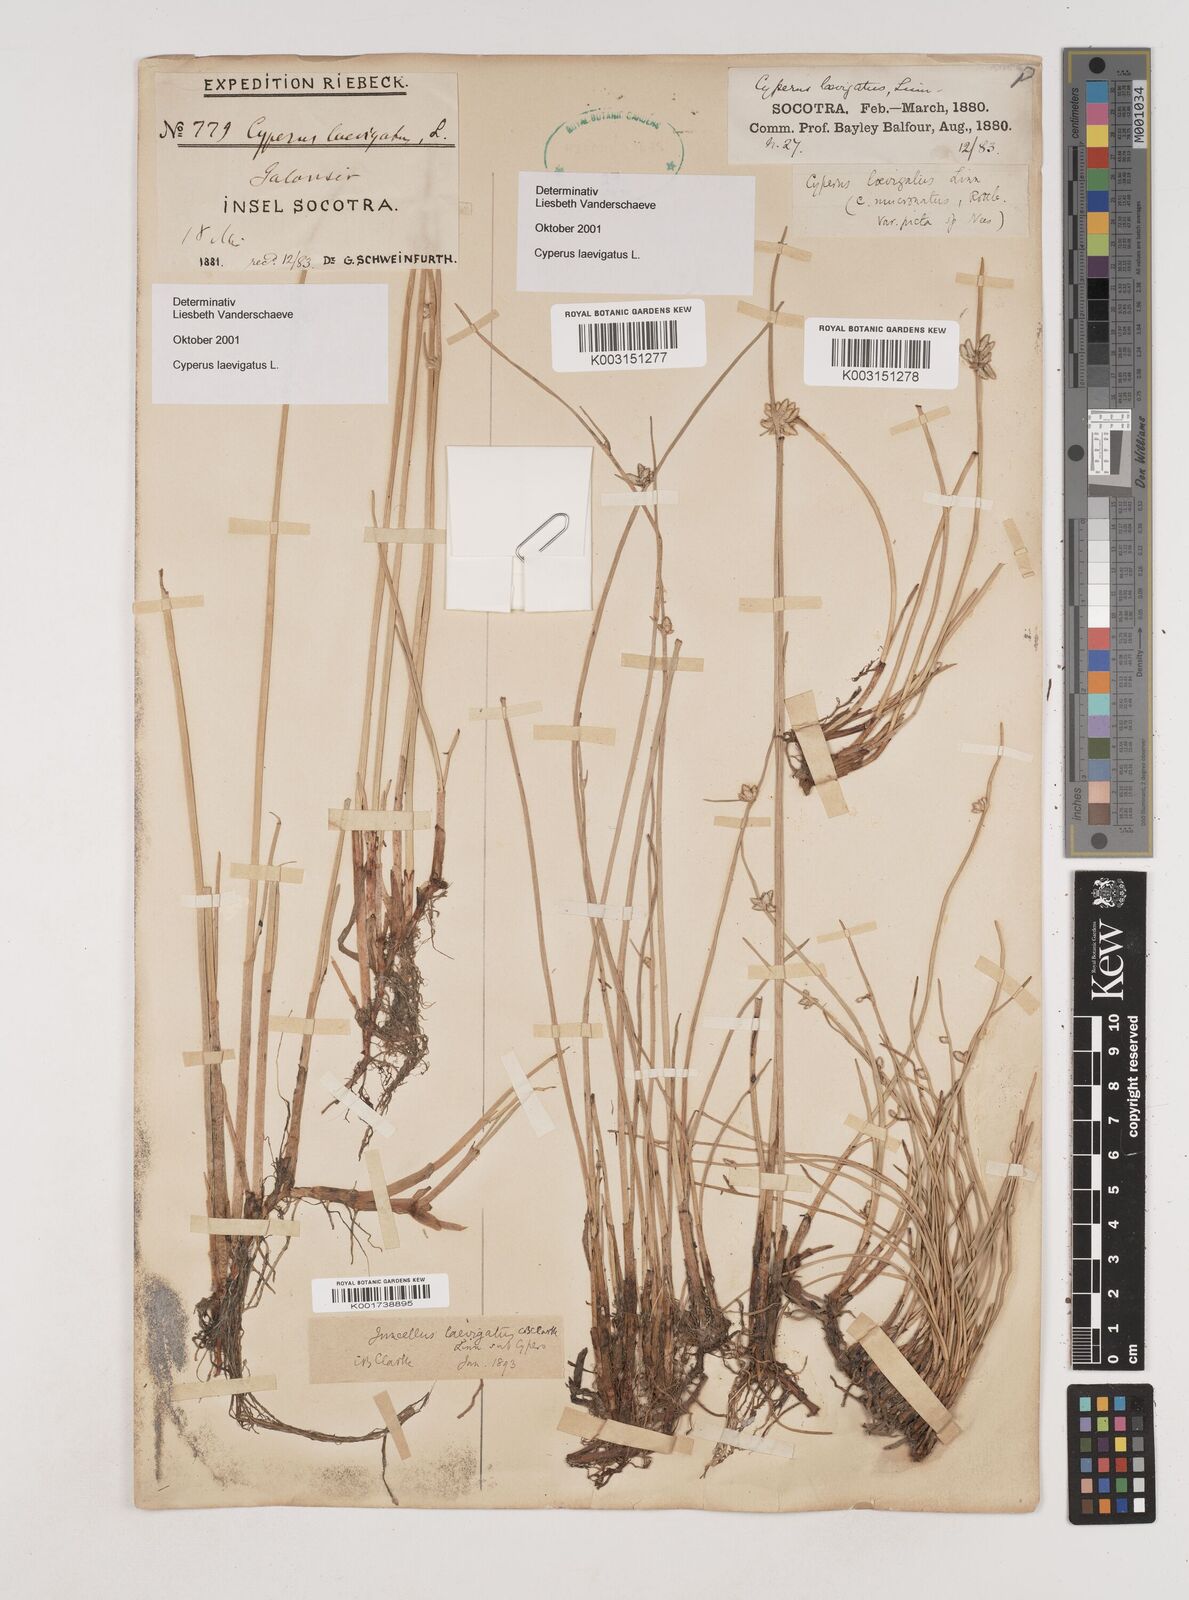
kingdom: Plantae
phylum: Tracheophyta
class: Liliopsida
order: Poales
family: Cyperaceae
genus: Cyperus
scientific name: Cyperus laevigatus
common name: Smooth flat sedge
